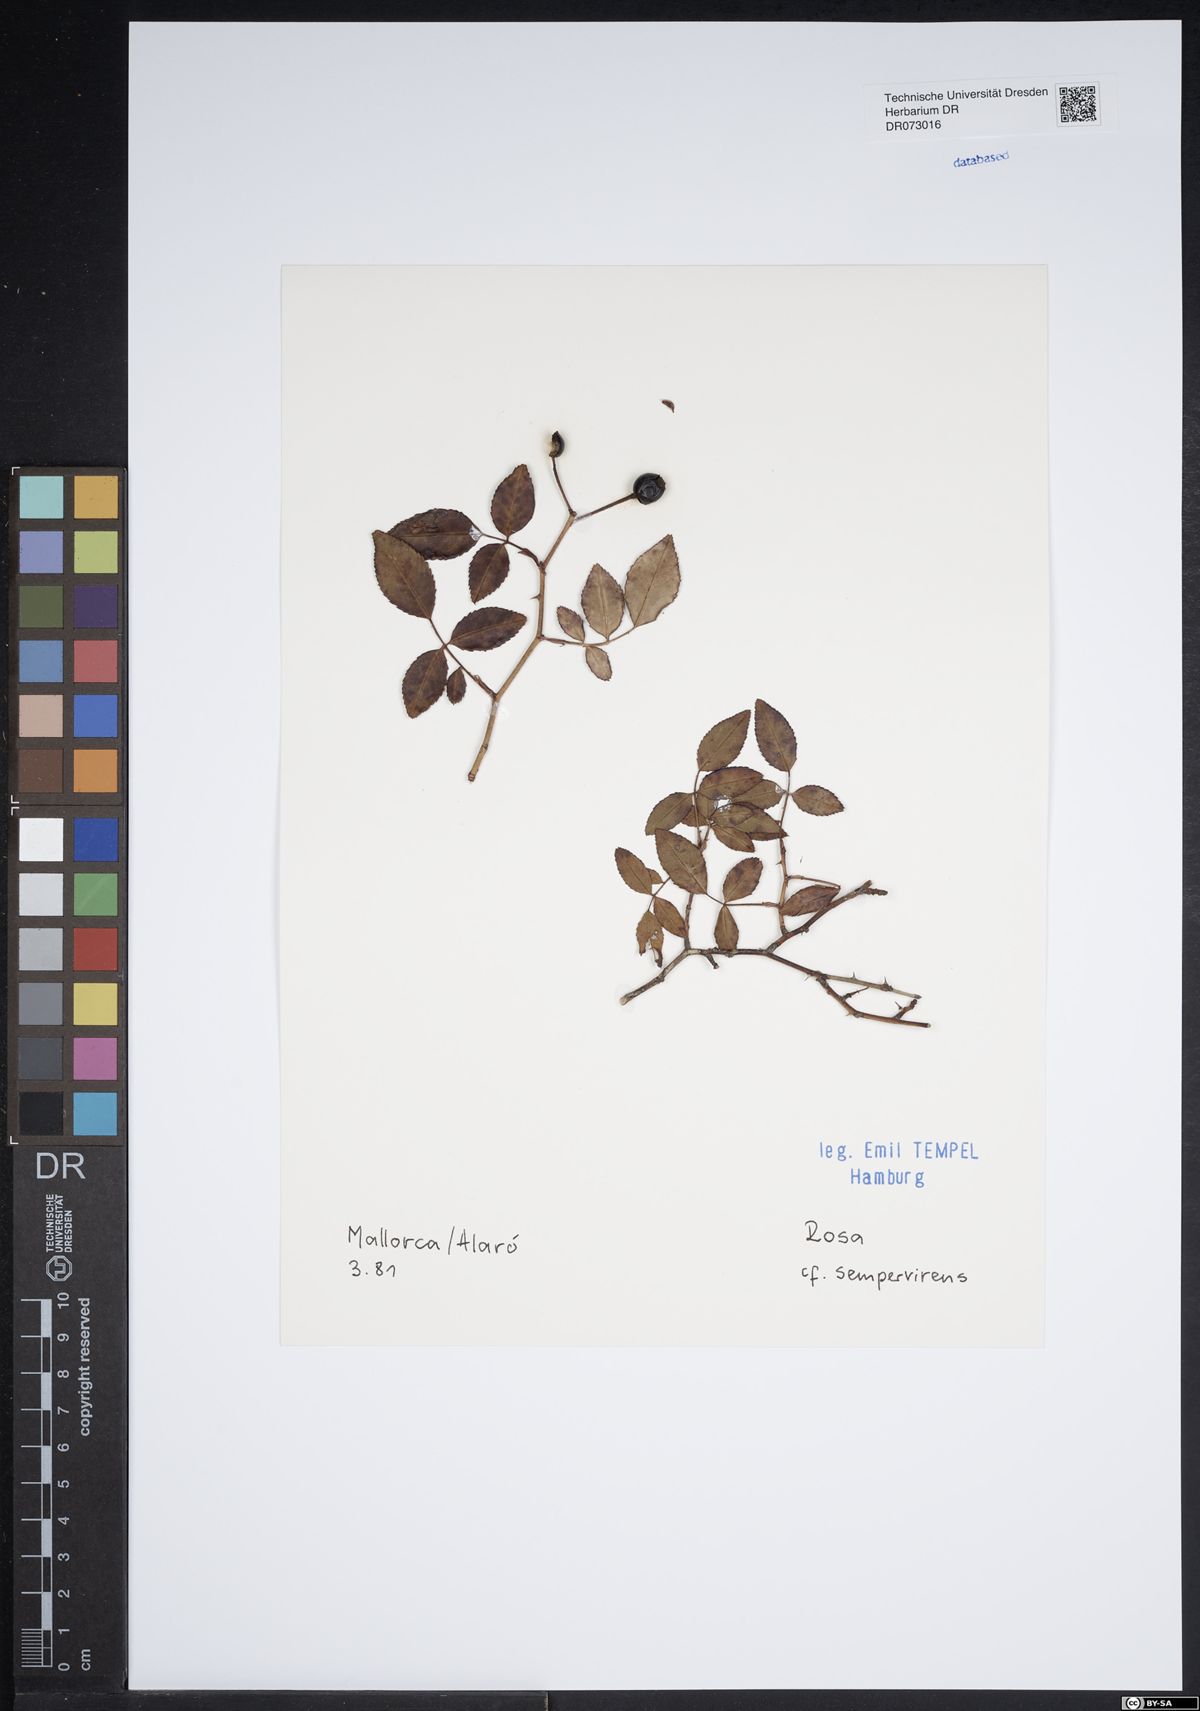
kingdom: Plantae
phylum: Tracheophyta
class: Magnoliopsida
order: Rosales
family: Rosaceae
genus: Rosa
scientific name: Rosa sempervirens
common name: Evergreen rose
